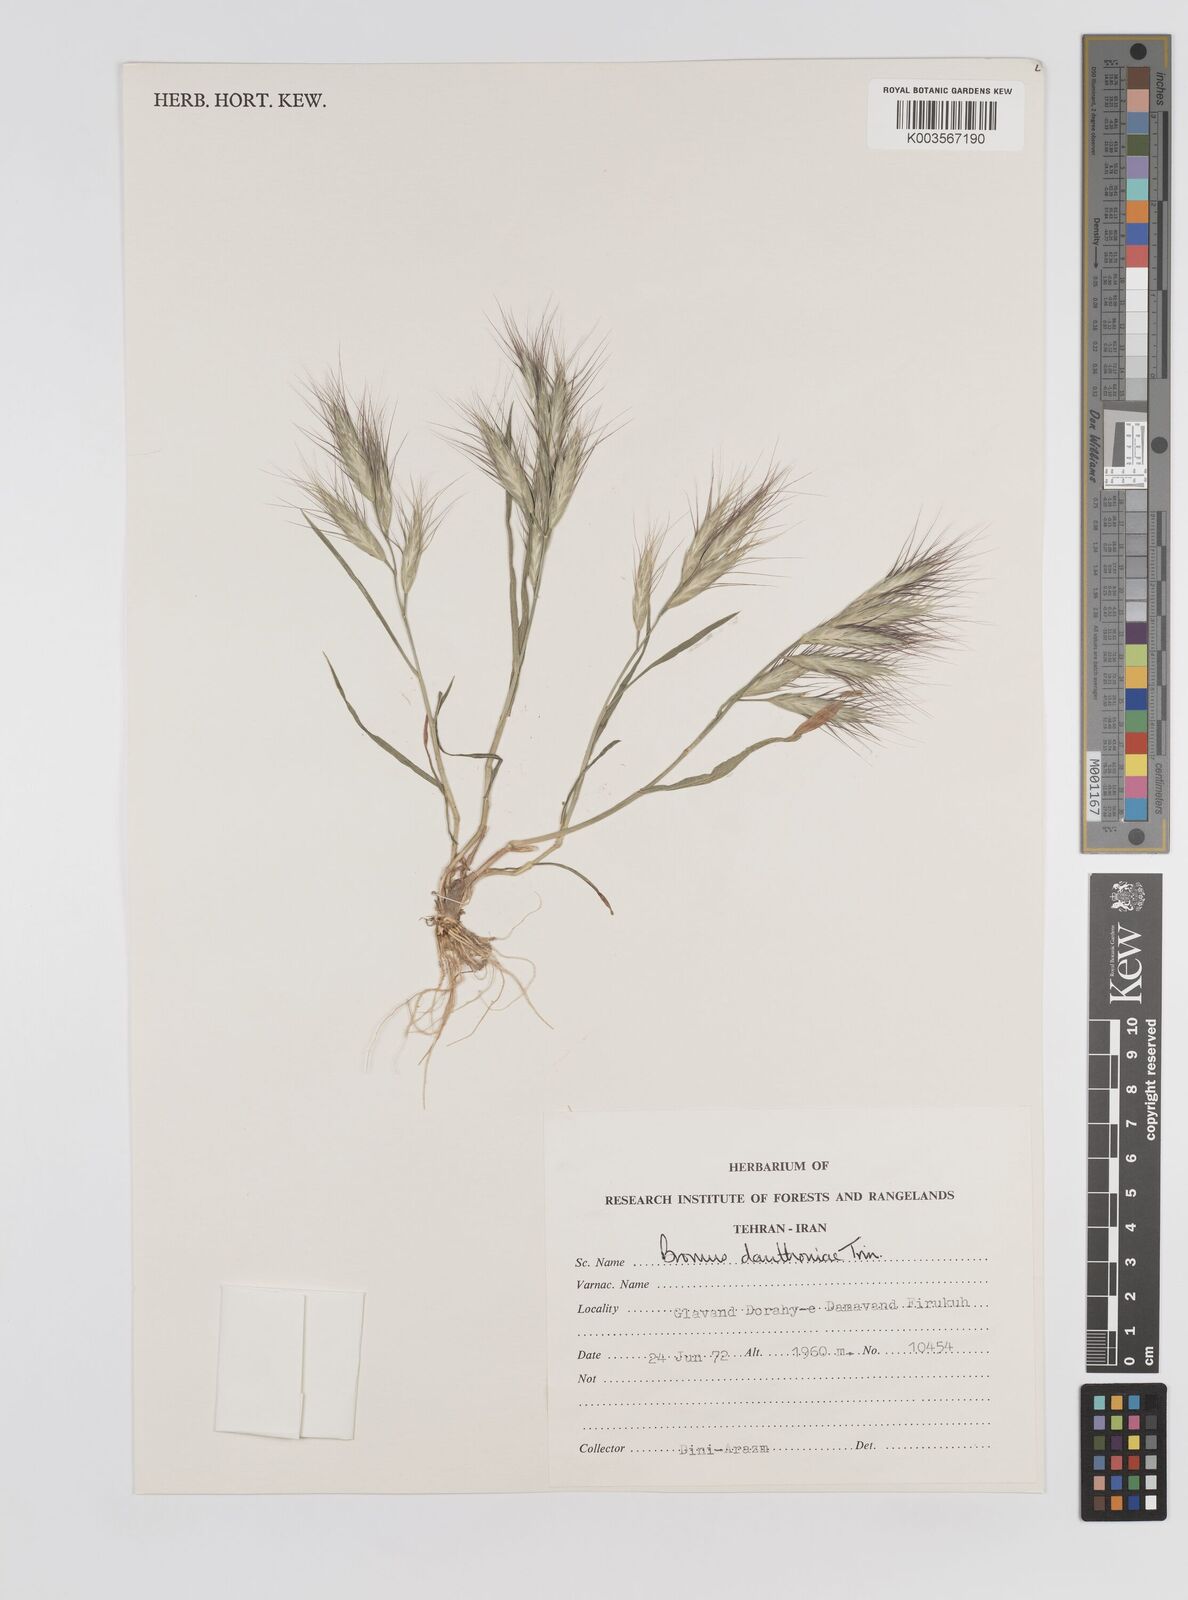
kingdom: Plantae
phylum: Tracheophyta
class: Liliopsida
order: Poales
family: Poaceae
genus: Bromus
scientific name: Bromus danthoniae
